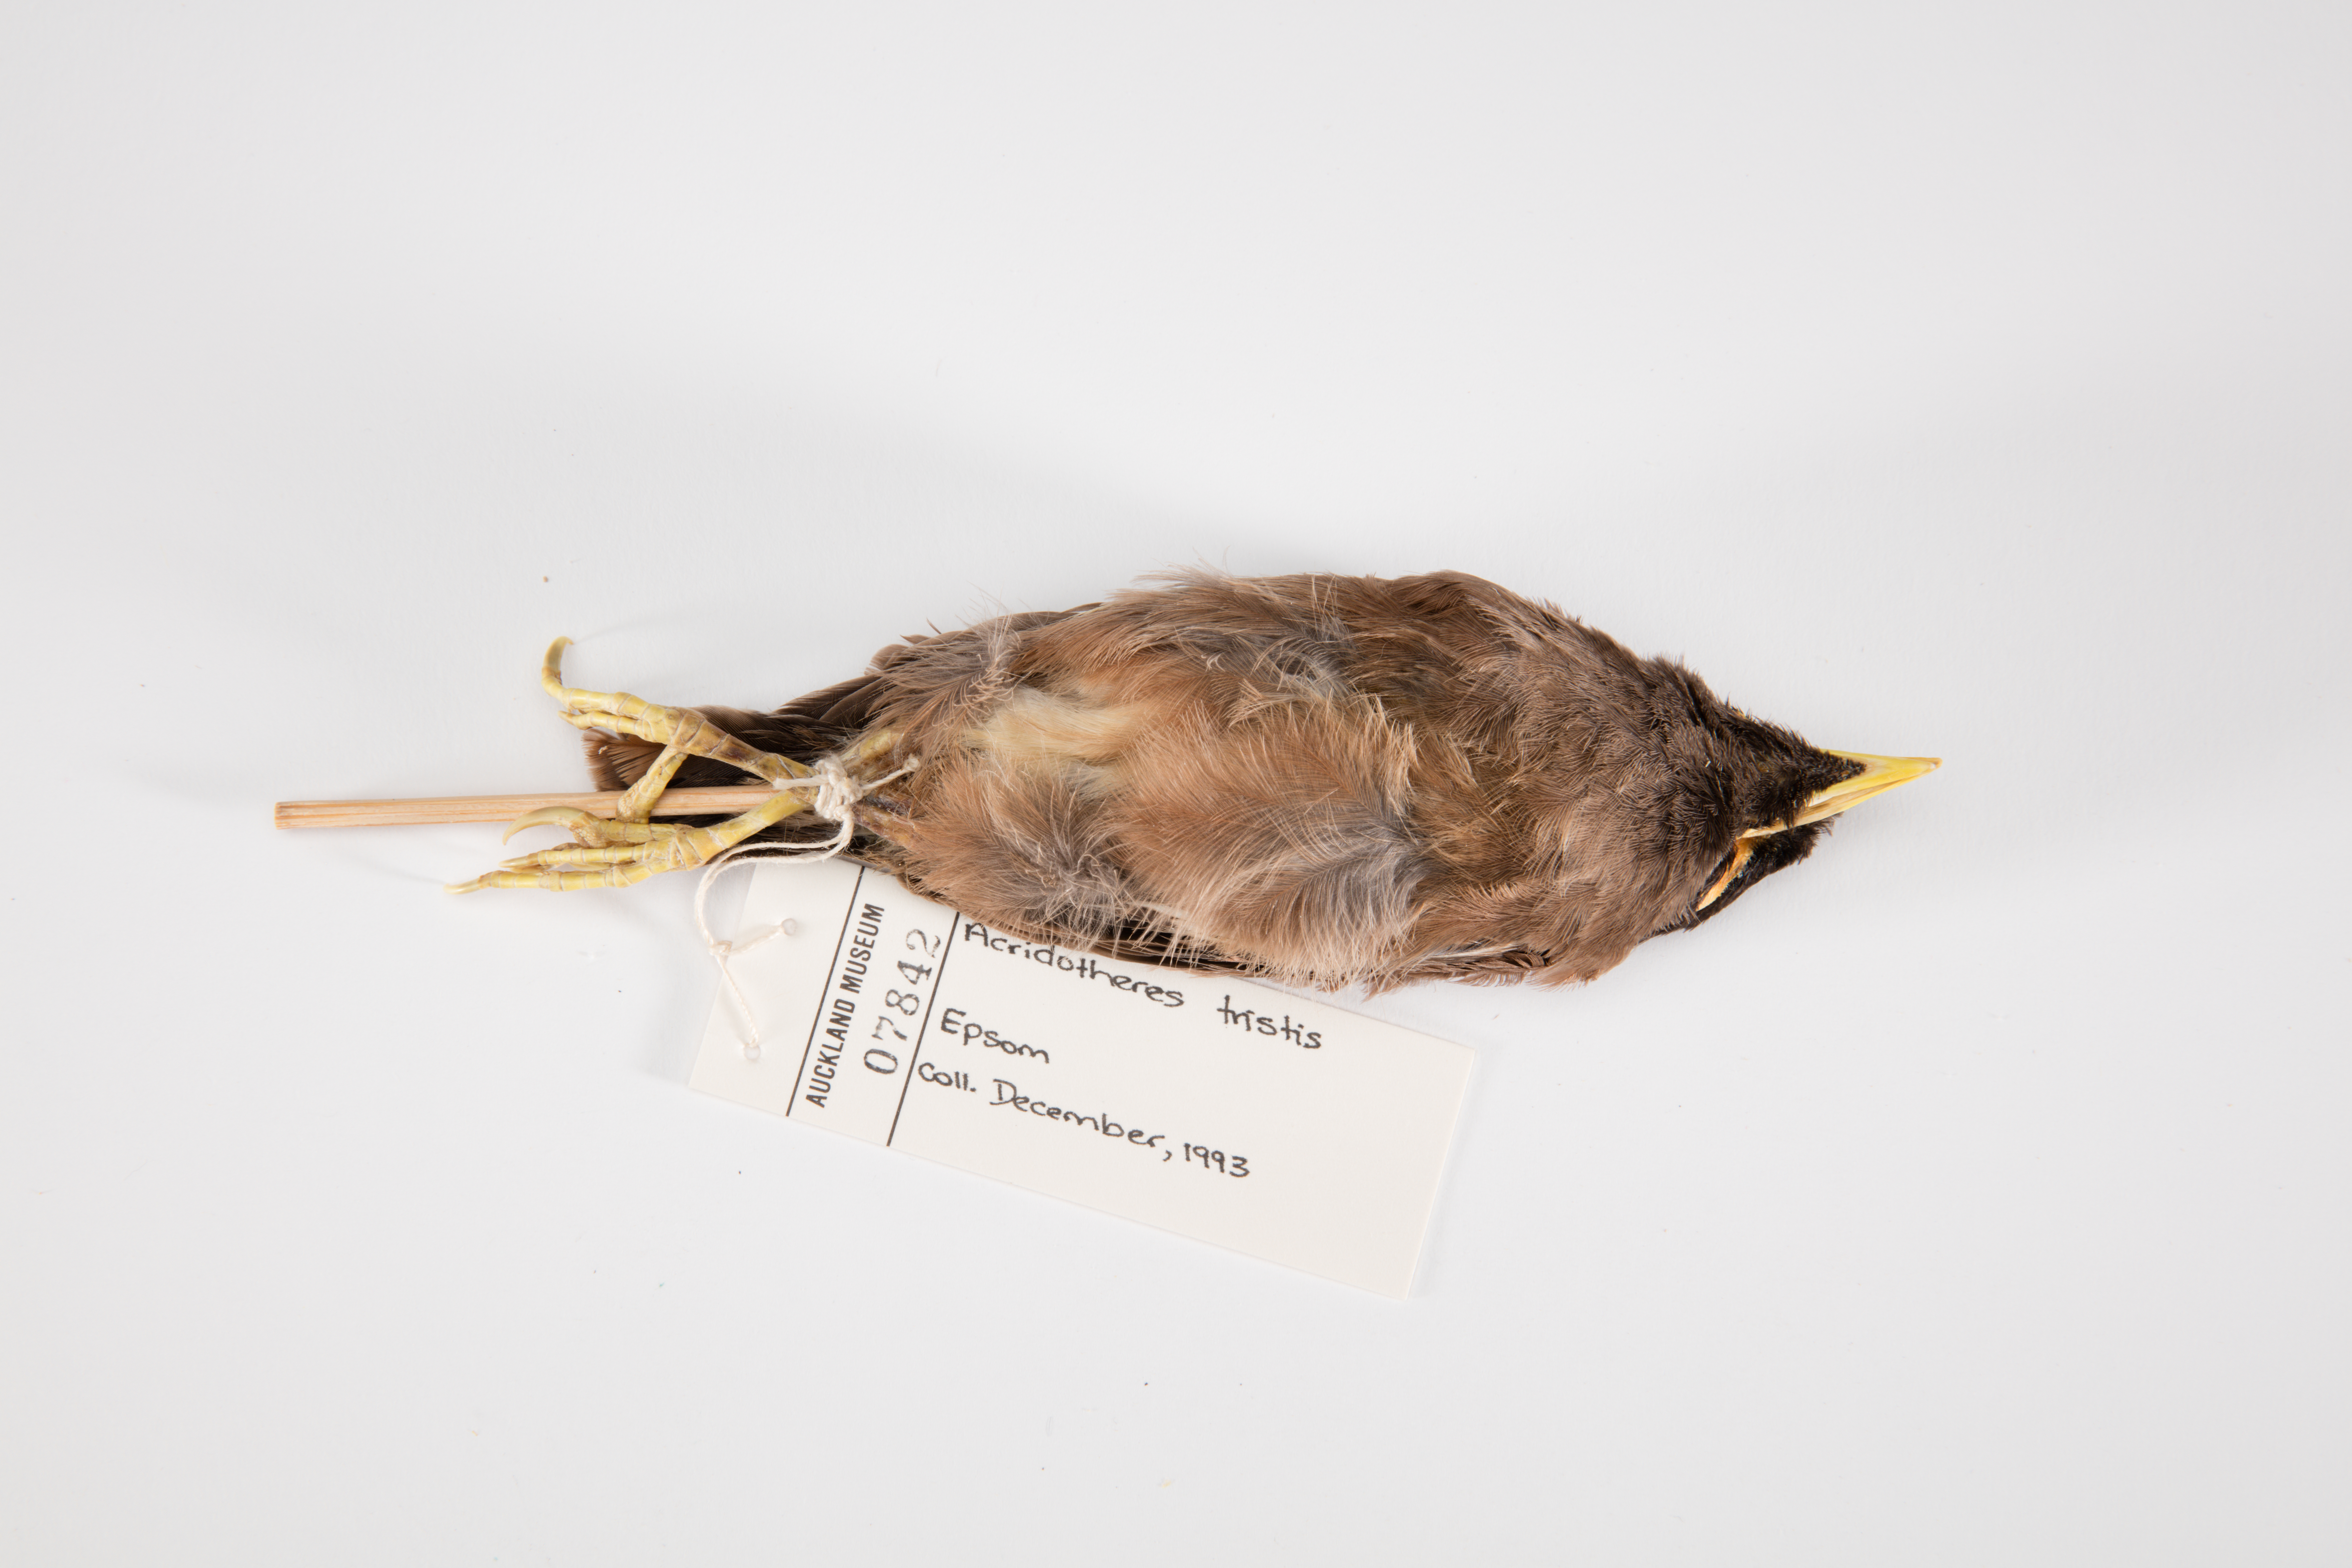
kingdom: Animalia
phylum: Chordata
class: Aves
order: Passeriformes
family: Sturnidae
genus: Acridotheres
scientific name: Acridotheres tristis
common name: Common myna
